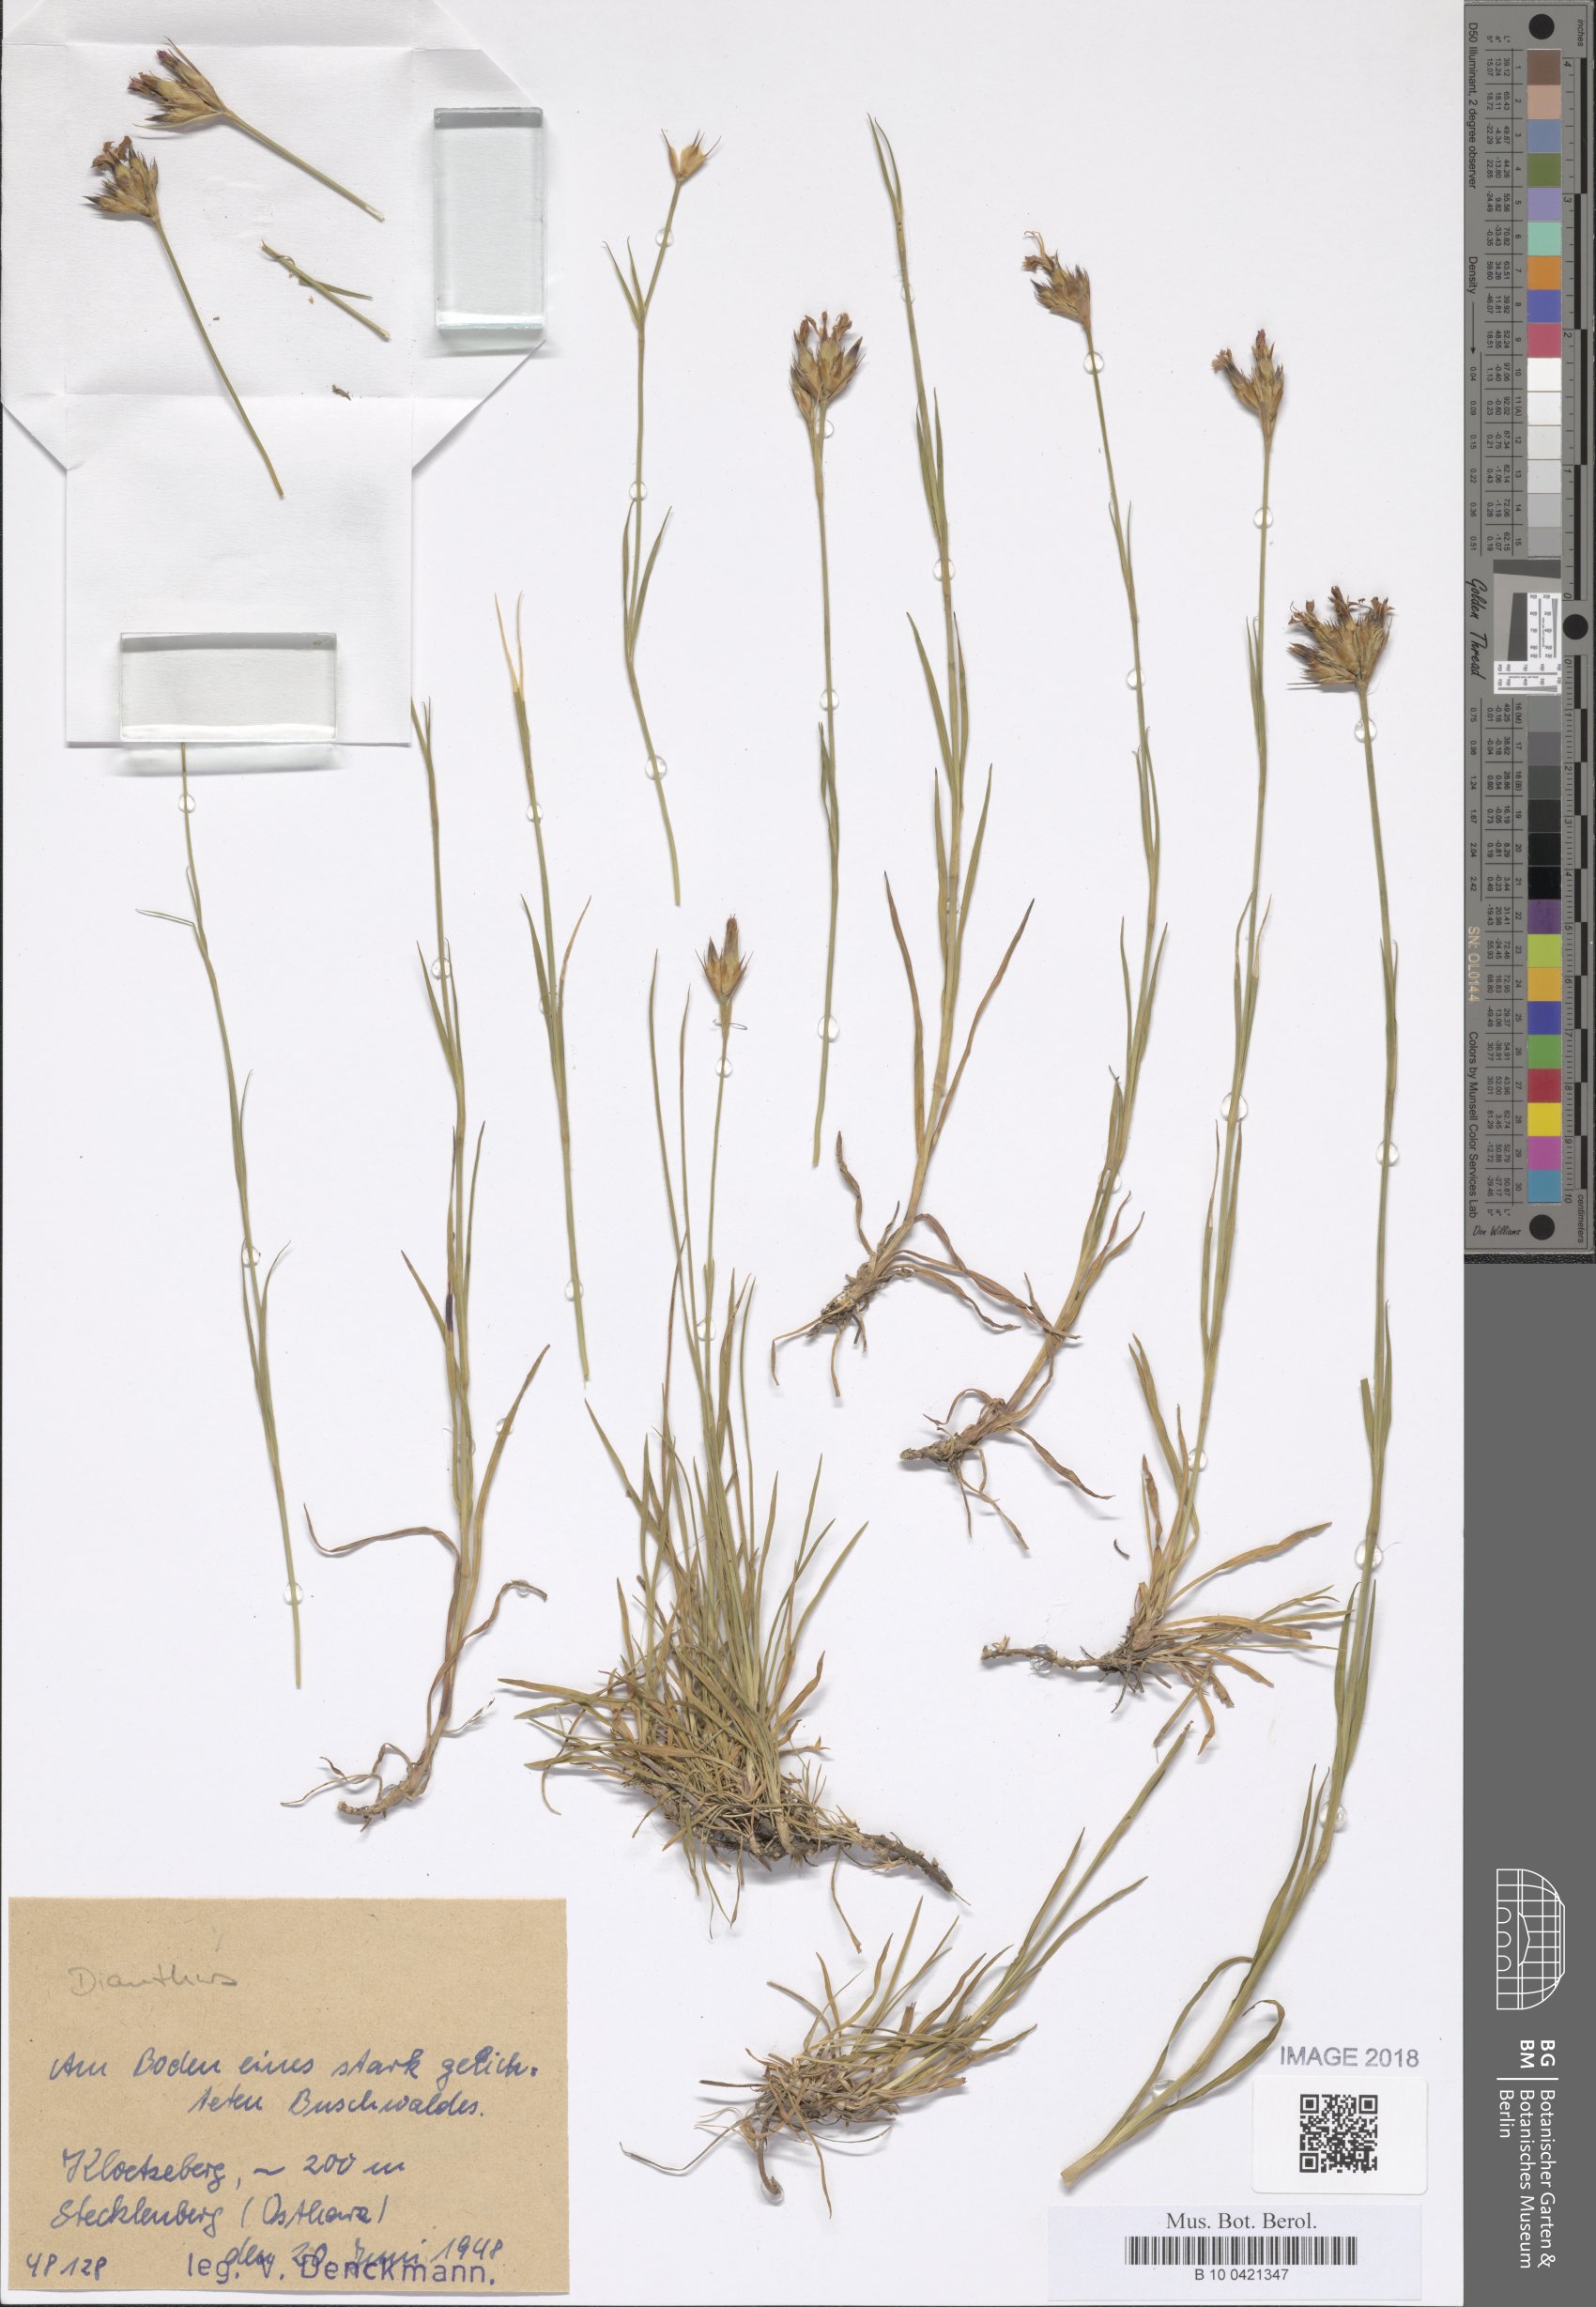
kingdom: Plantae
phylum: Tracheophyta
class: Magnoliopsida
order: Caryophyllales
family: Caryophyllaceae
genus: Dianthus
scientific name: Dianthus balbisii
